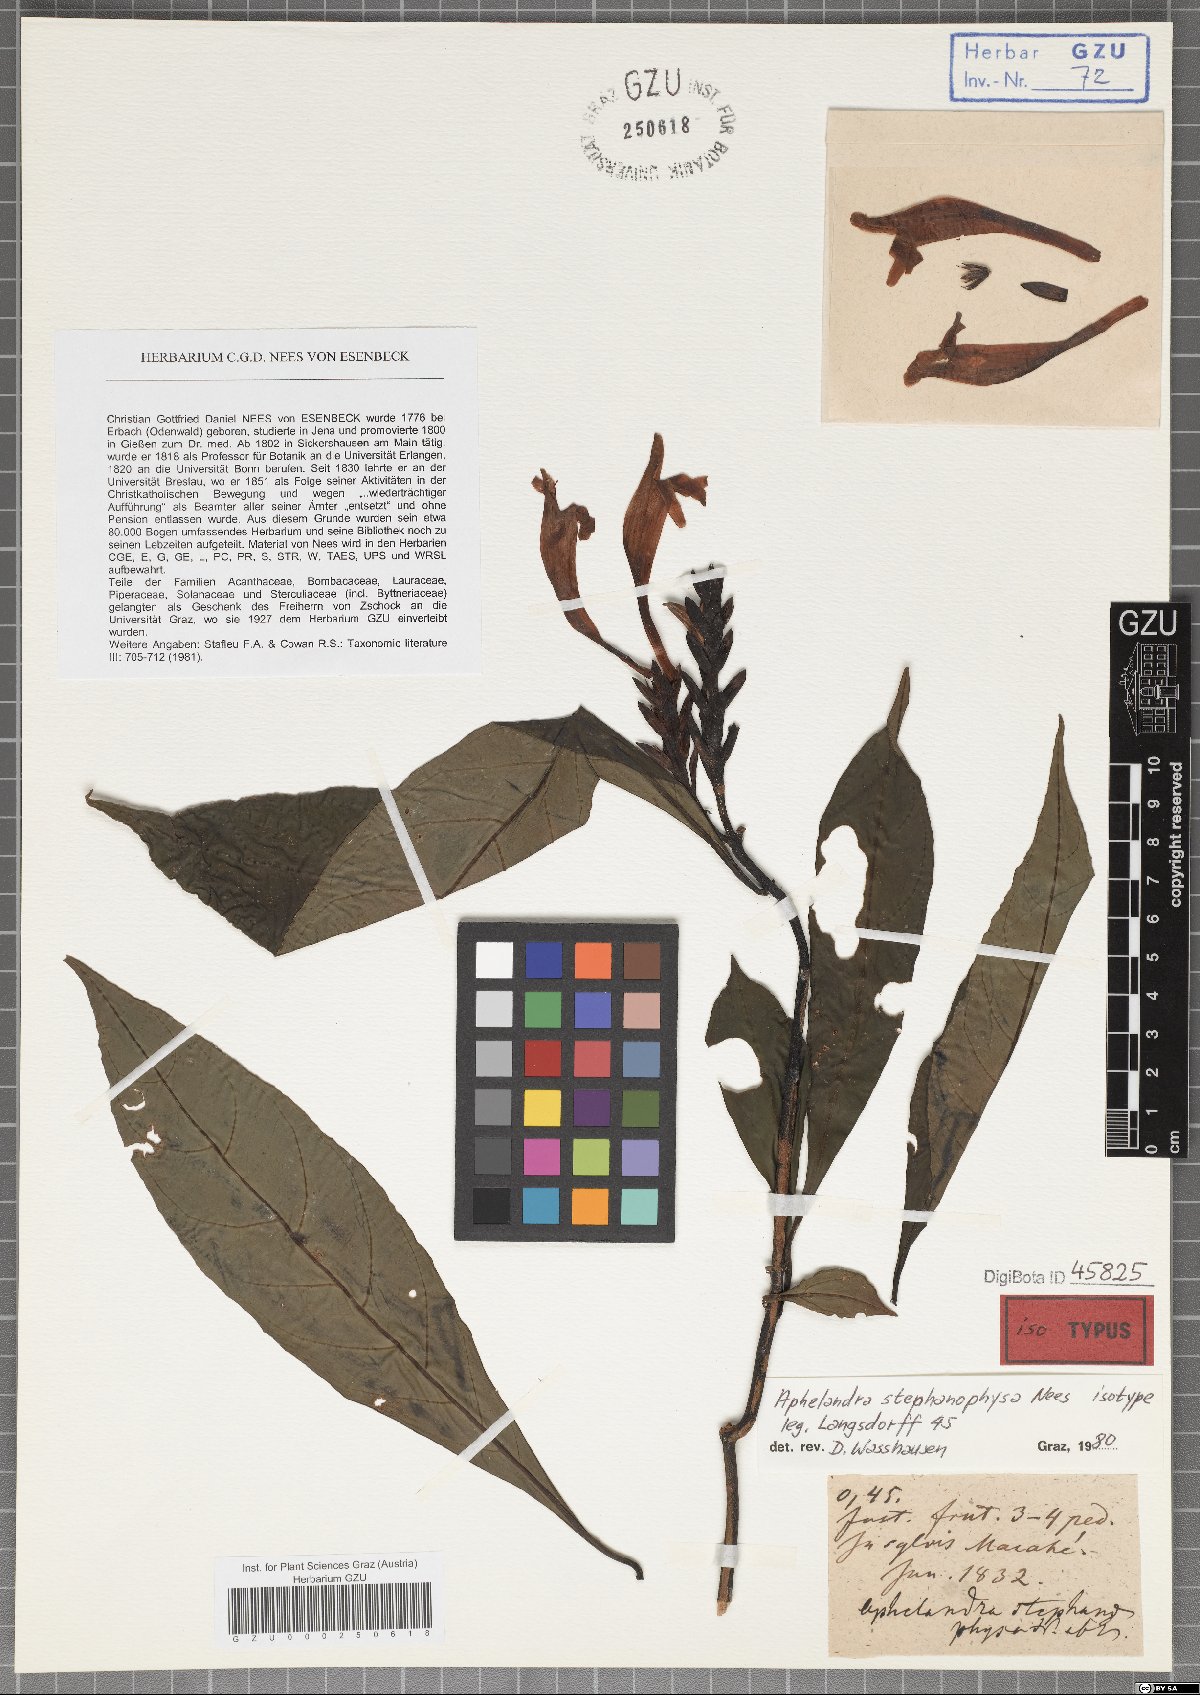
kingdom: Plantae
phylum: Tracheophyta
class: Magnoliopsida
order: Lamiales
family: Acanthaceae
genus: Aphelandra
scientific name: Aphelandra stephanophysa
